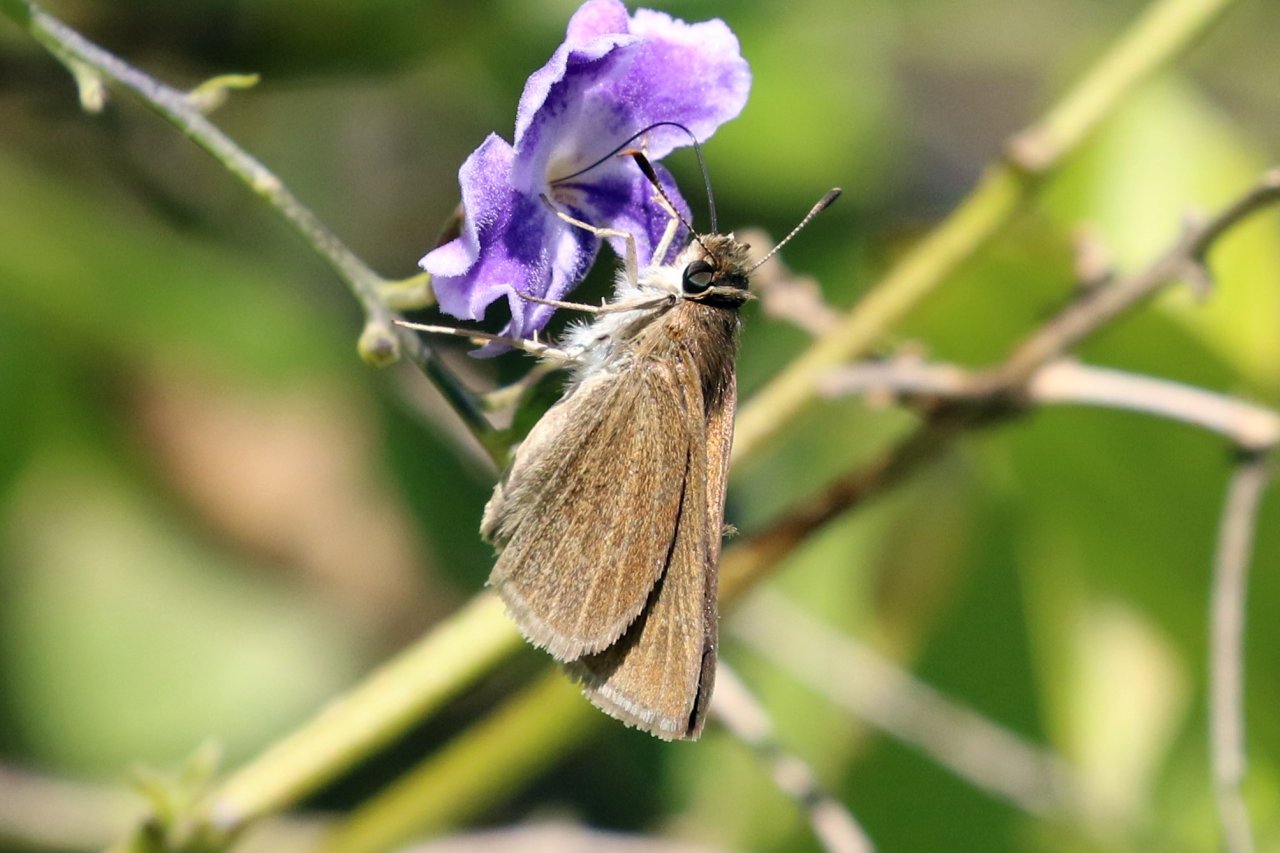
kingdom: Animalia
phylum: Arthropoda
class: Insecta
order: Lepidoptera
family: Hesperiidae
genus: Nastra
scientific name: Nastra julia
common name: Julia's Skipper
